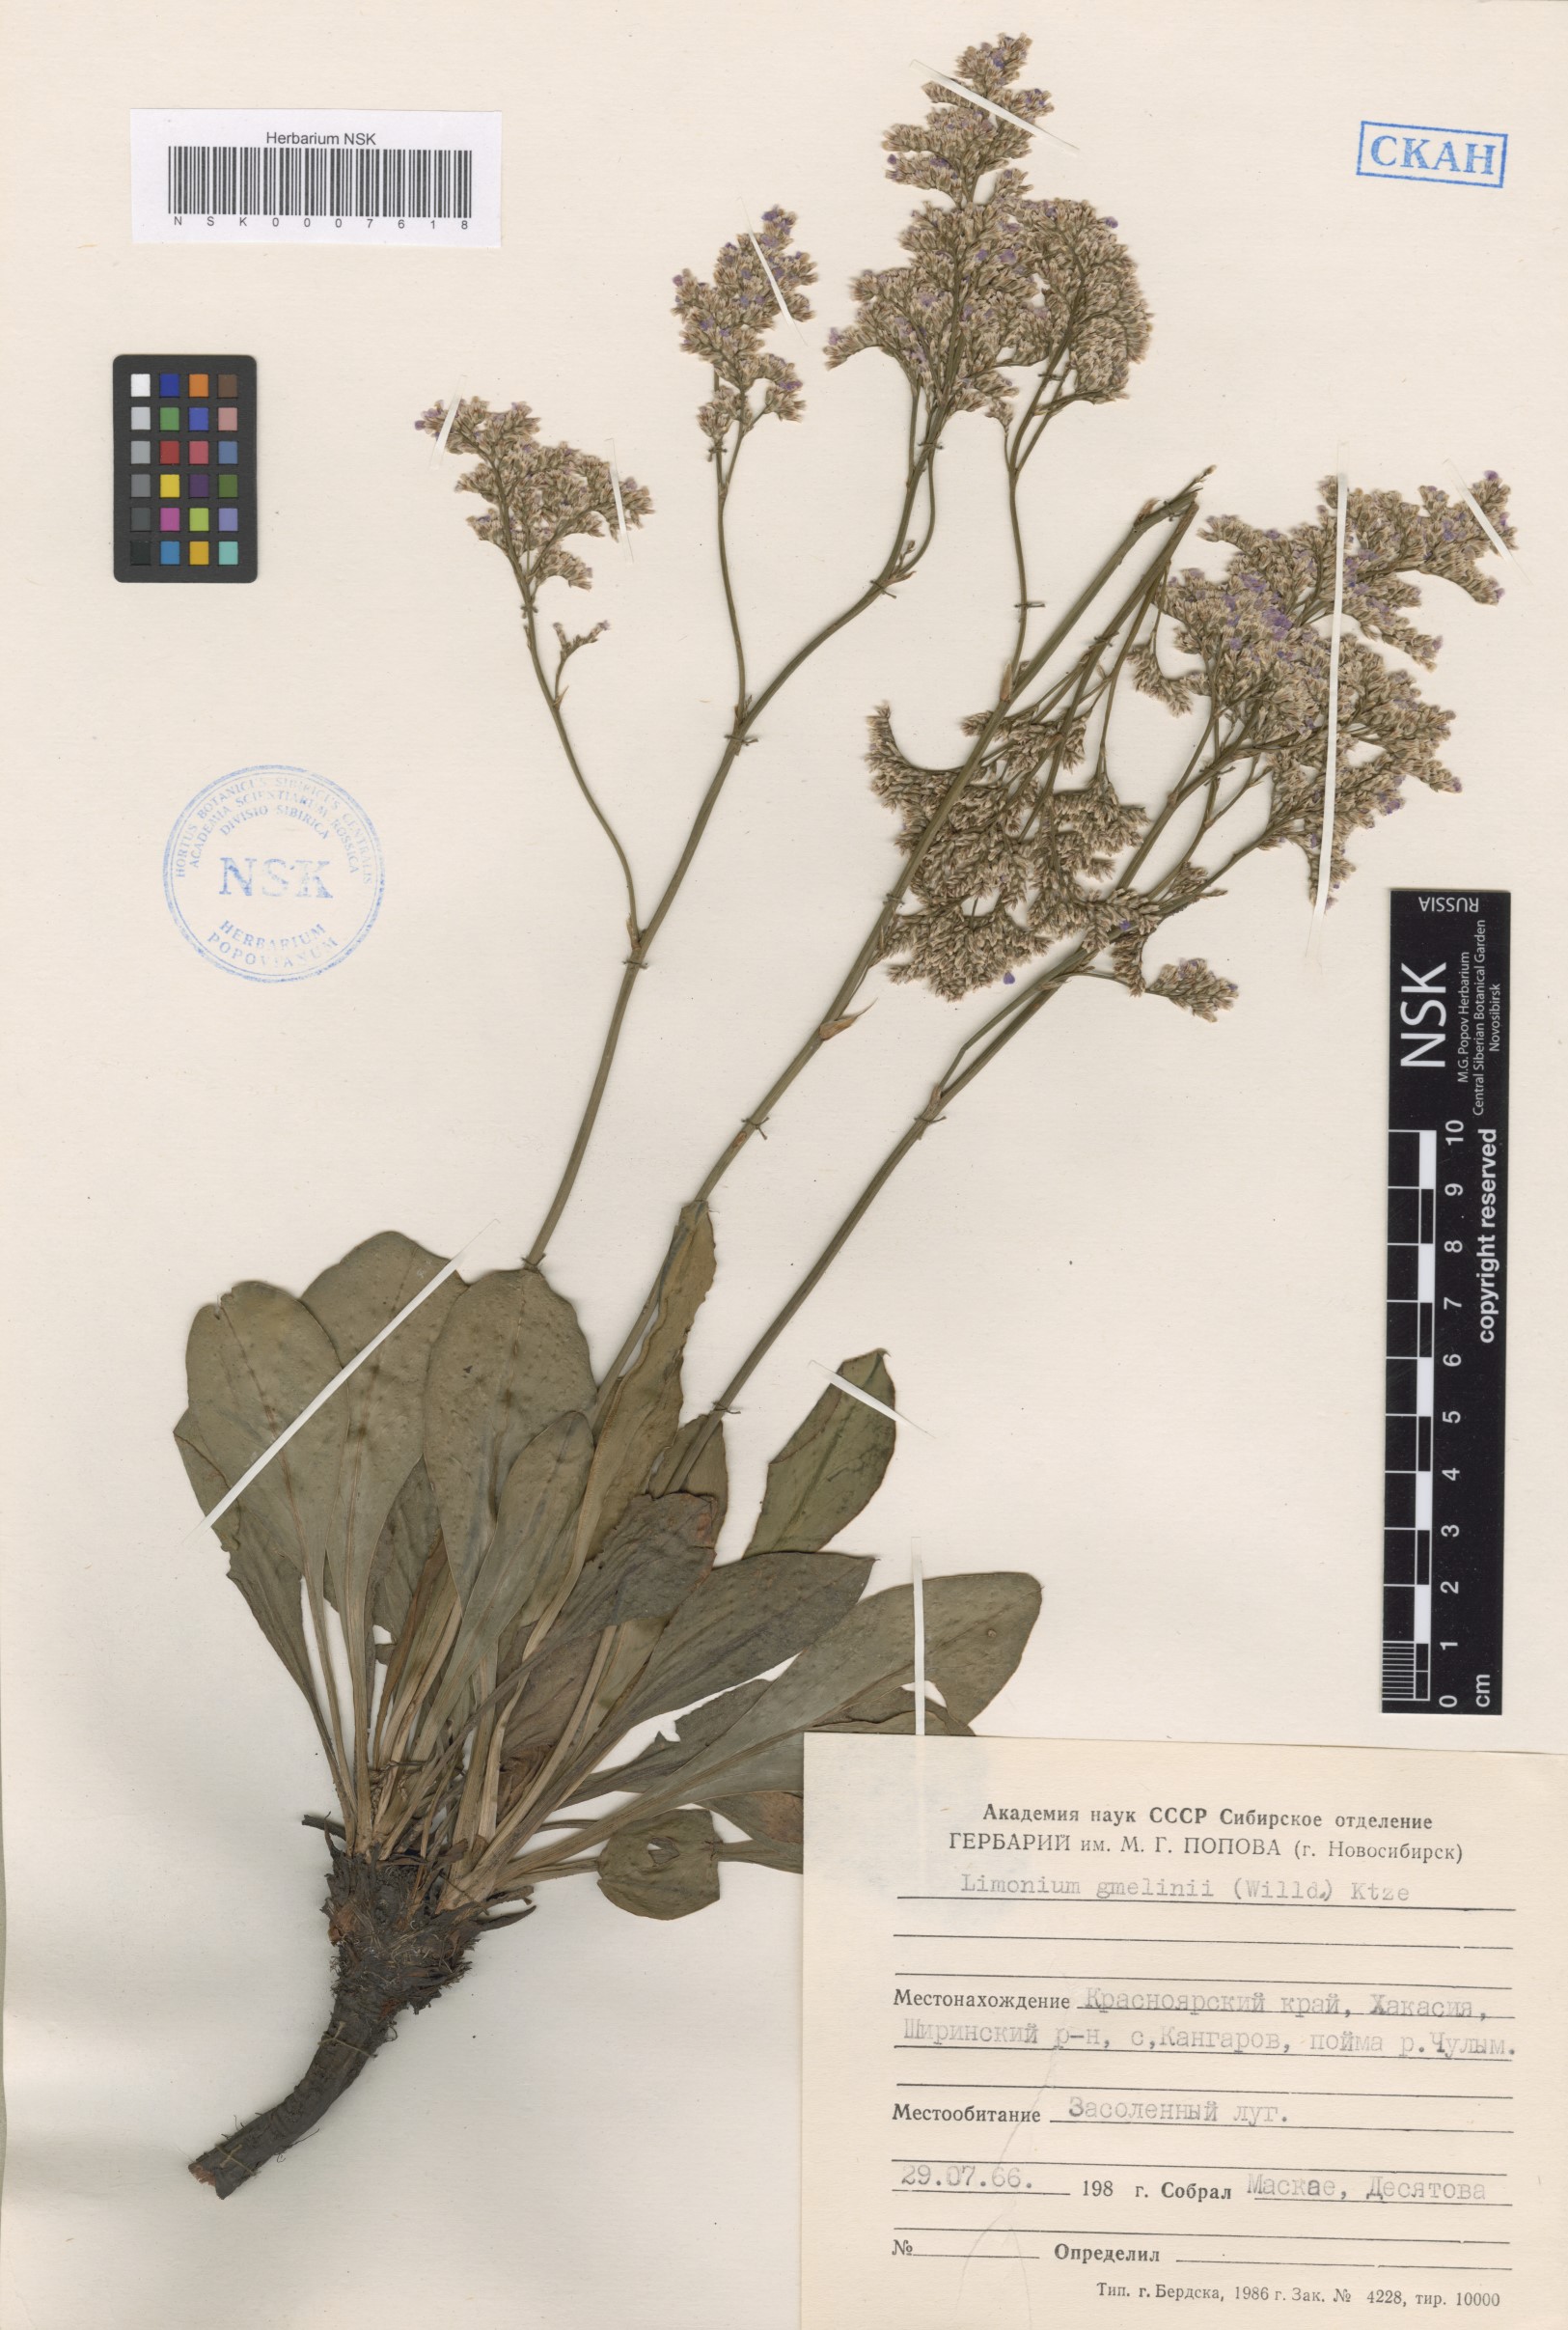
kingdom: Plantae
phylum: Tracheophyta
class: Magnoliopsida
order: Caryophyllales
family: Plumbaginaceae
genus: Limonium
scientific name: Limonium gmelini
